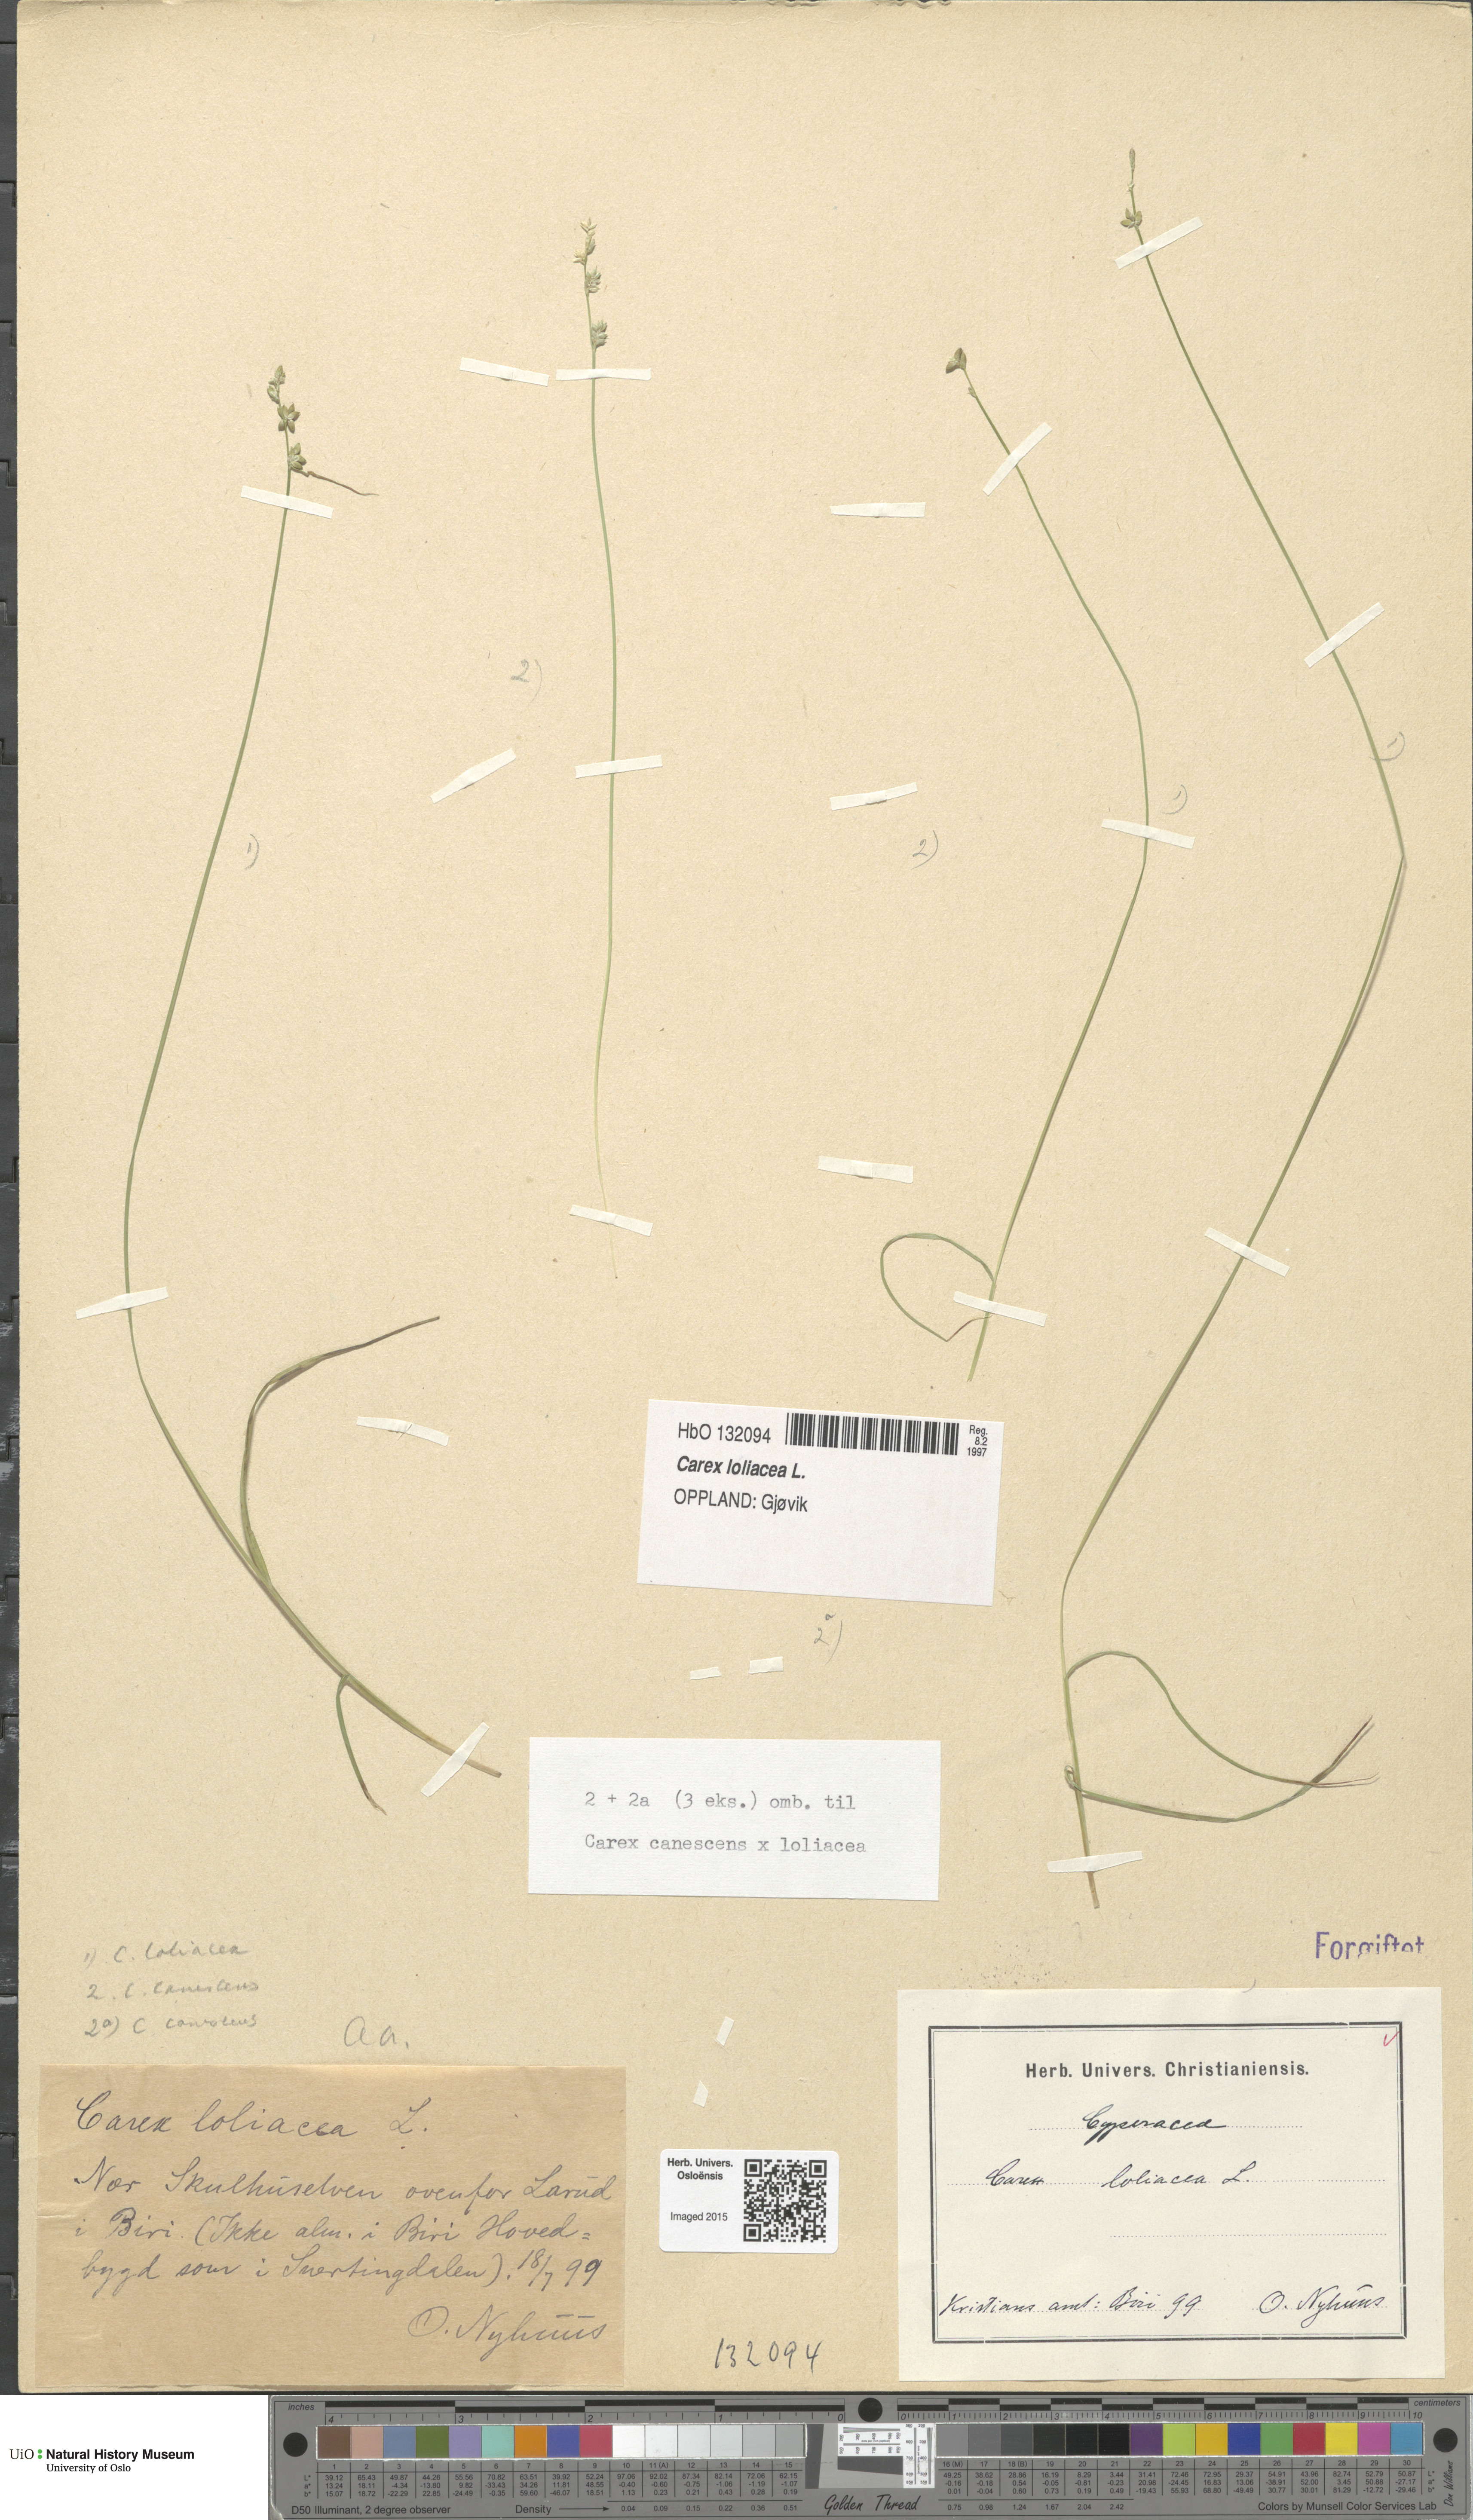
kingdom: Plantae
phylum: Tracheophyta
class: Liliopsida
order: Poales
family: Cyperaceae
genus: Carex
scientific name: Carex loliacea
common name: Ryegrass sedge
